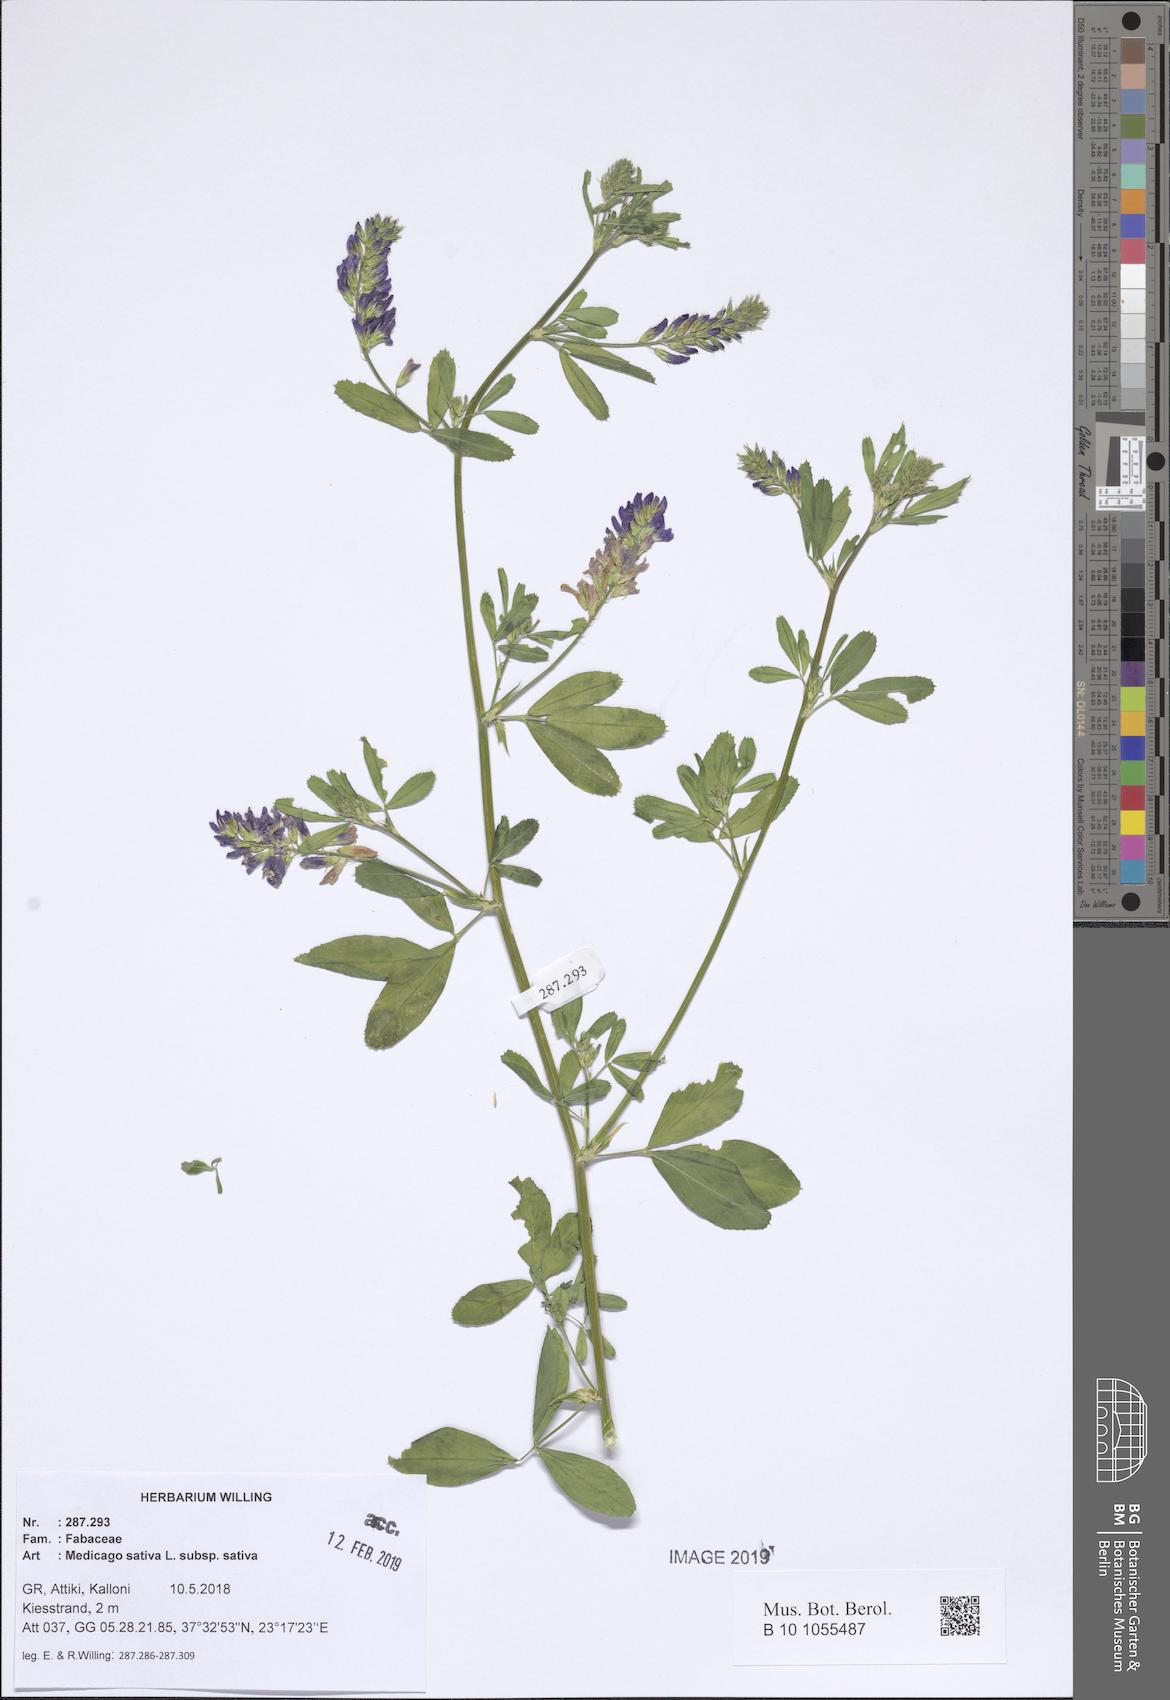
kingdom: Plantae
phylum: Tracheophyta
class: Magnoliopsida
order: Fabales
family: Fabaceae
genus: Medicago
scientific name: Medicago sativa
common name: Alfalfa
